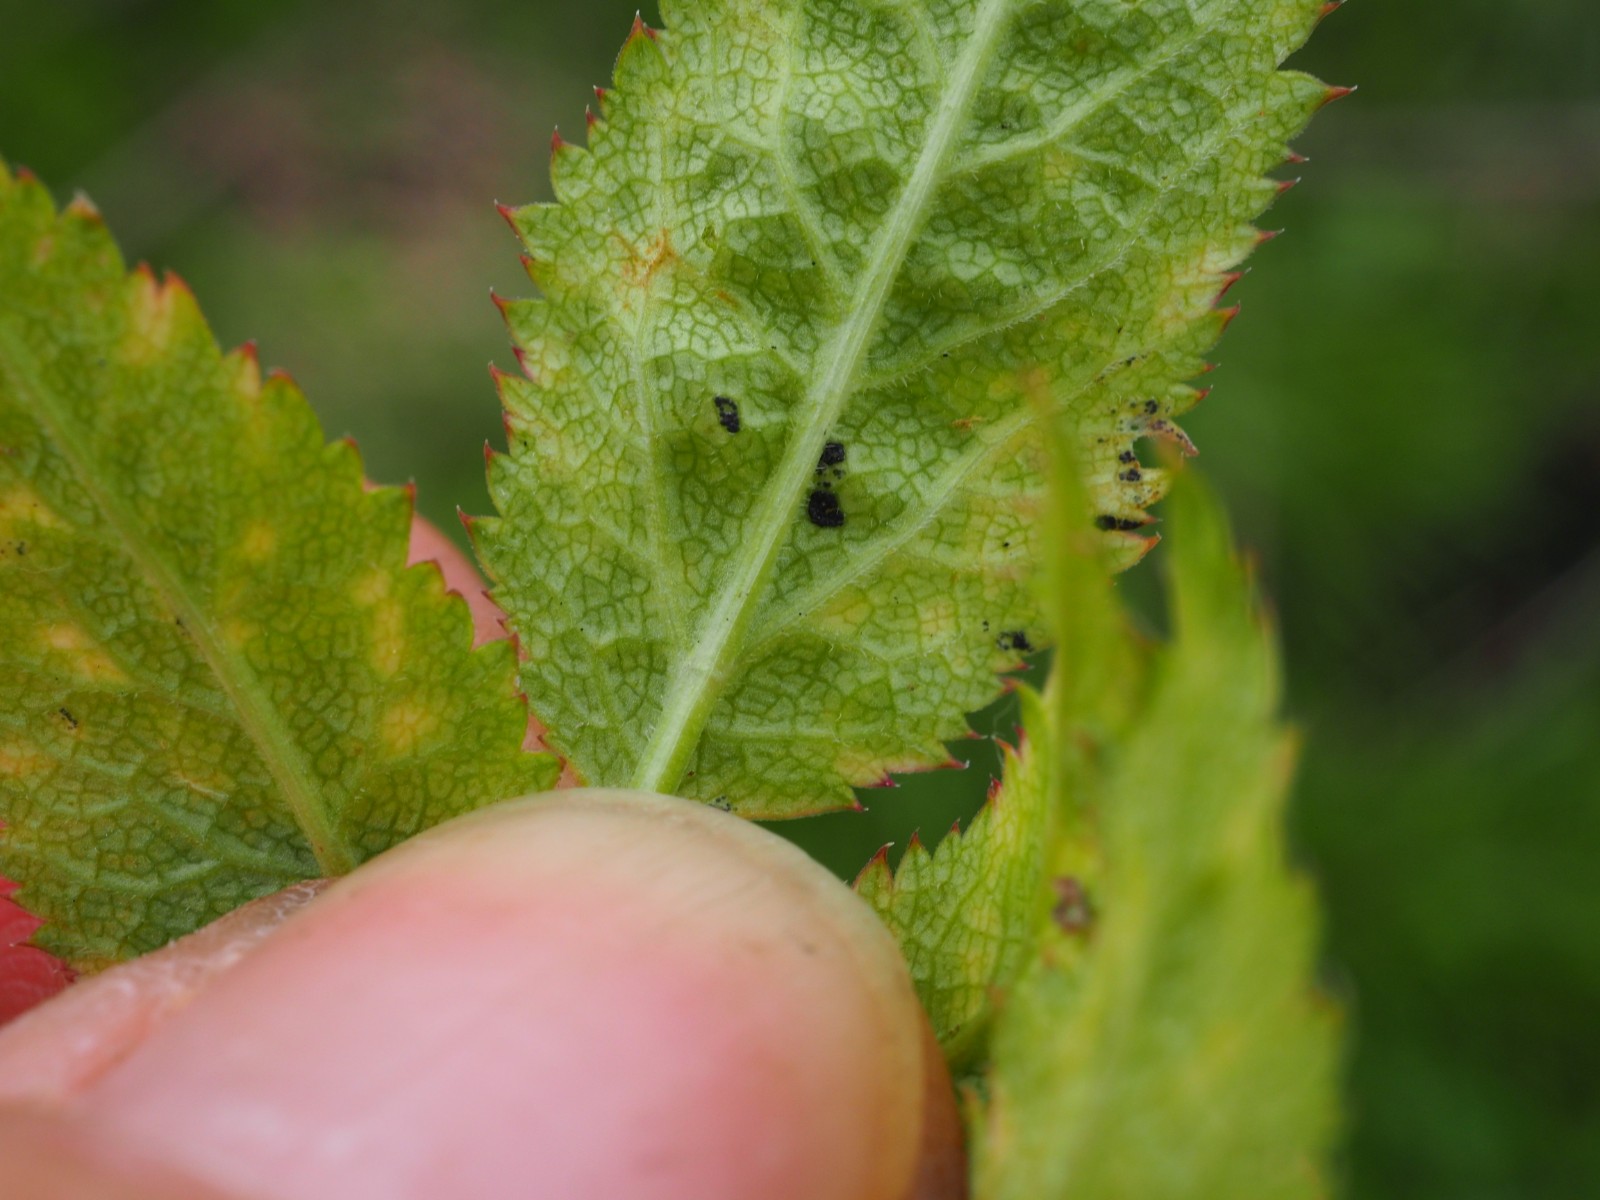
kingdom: Fungi
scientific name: Fungi
